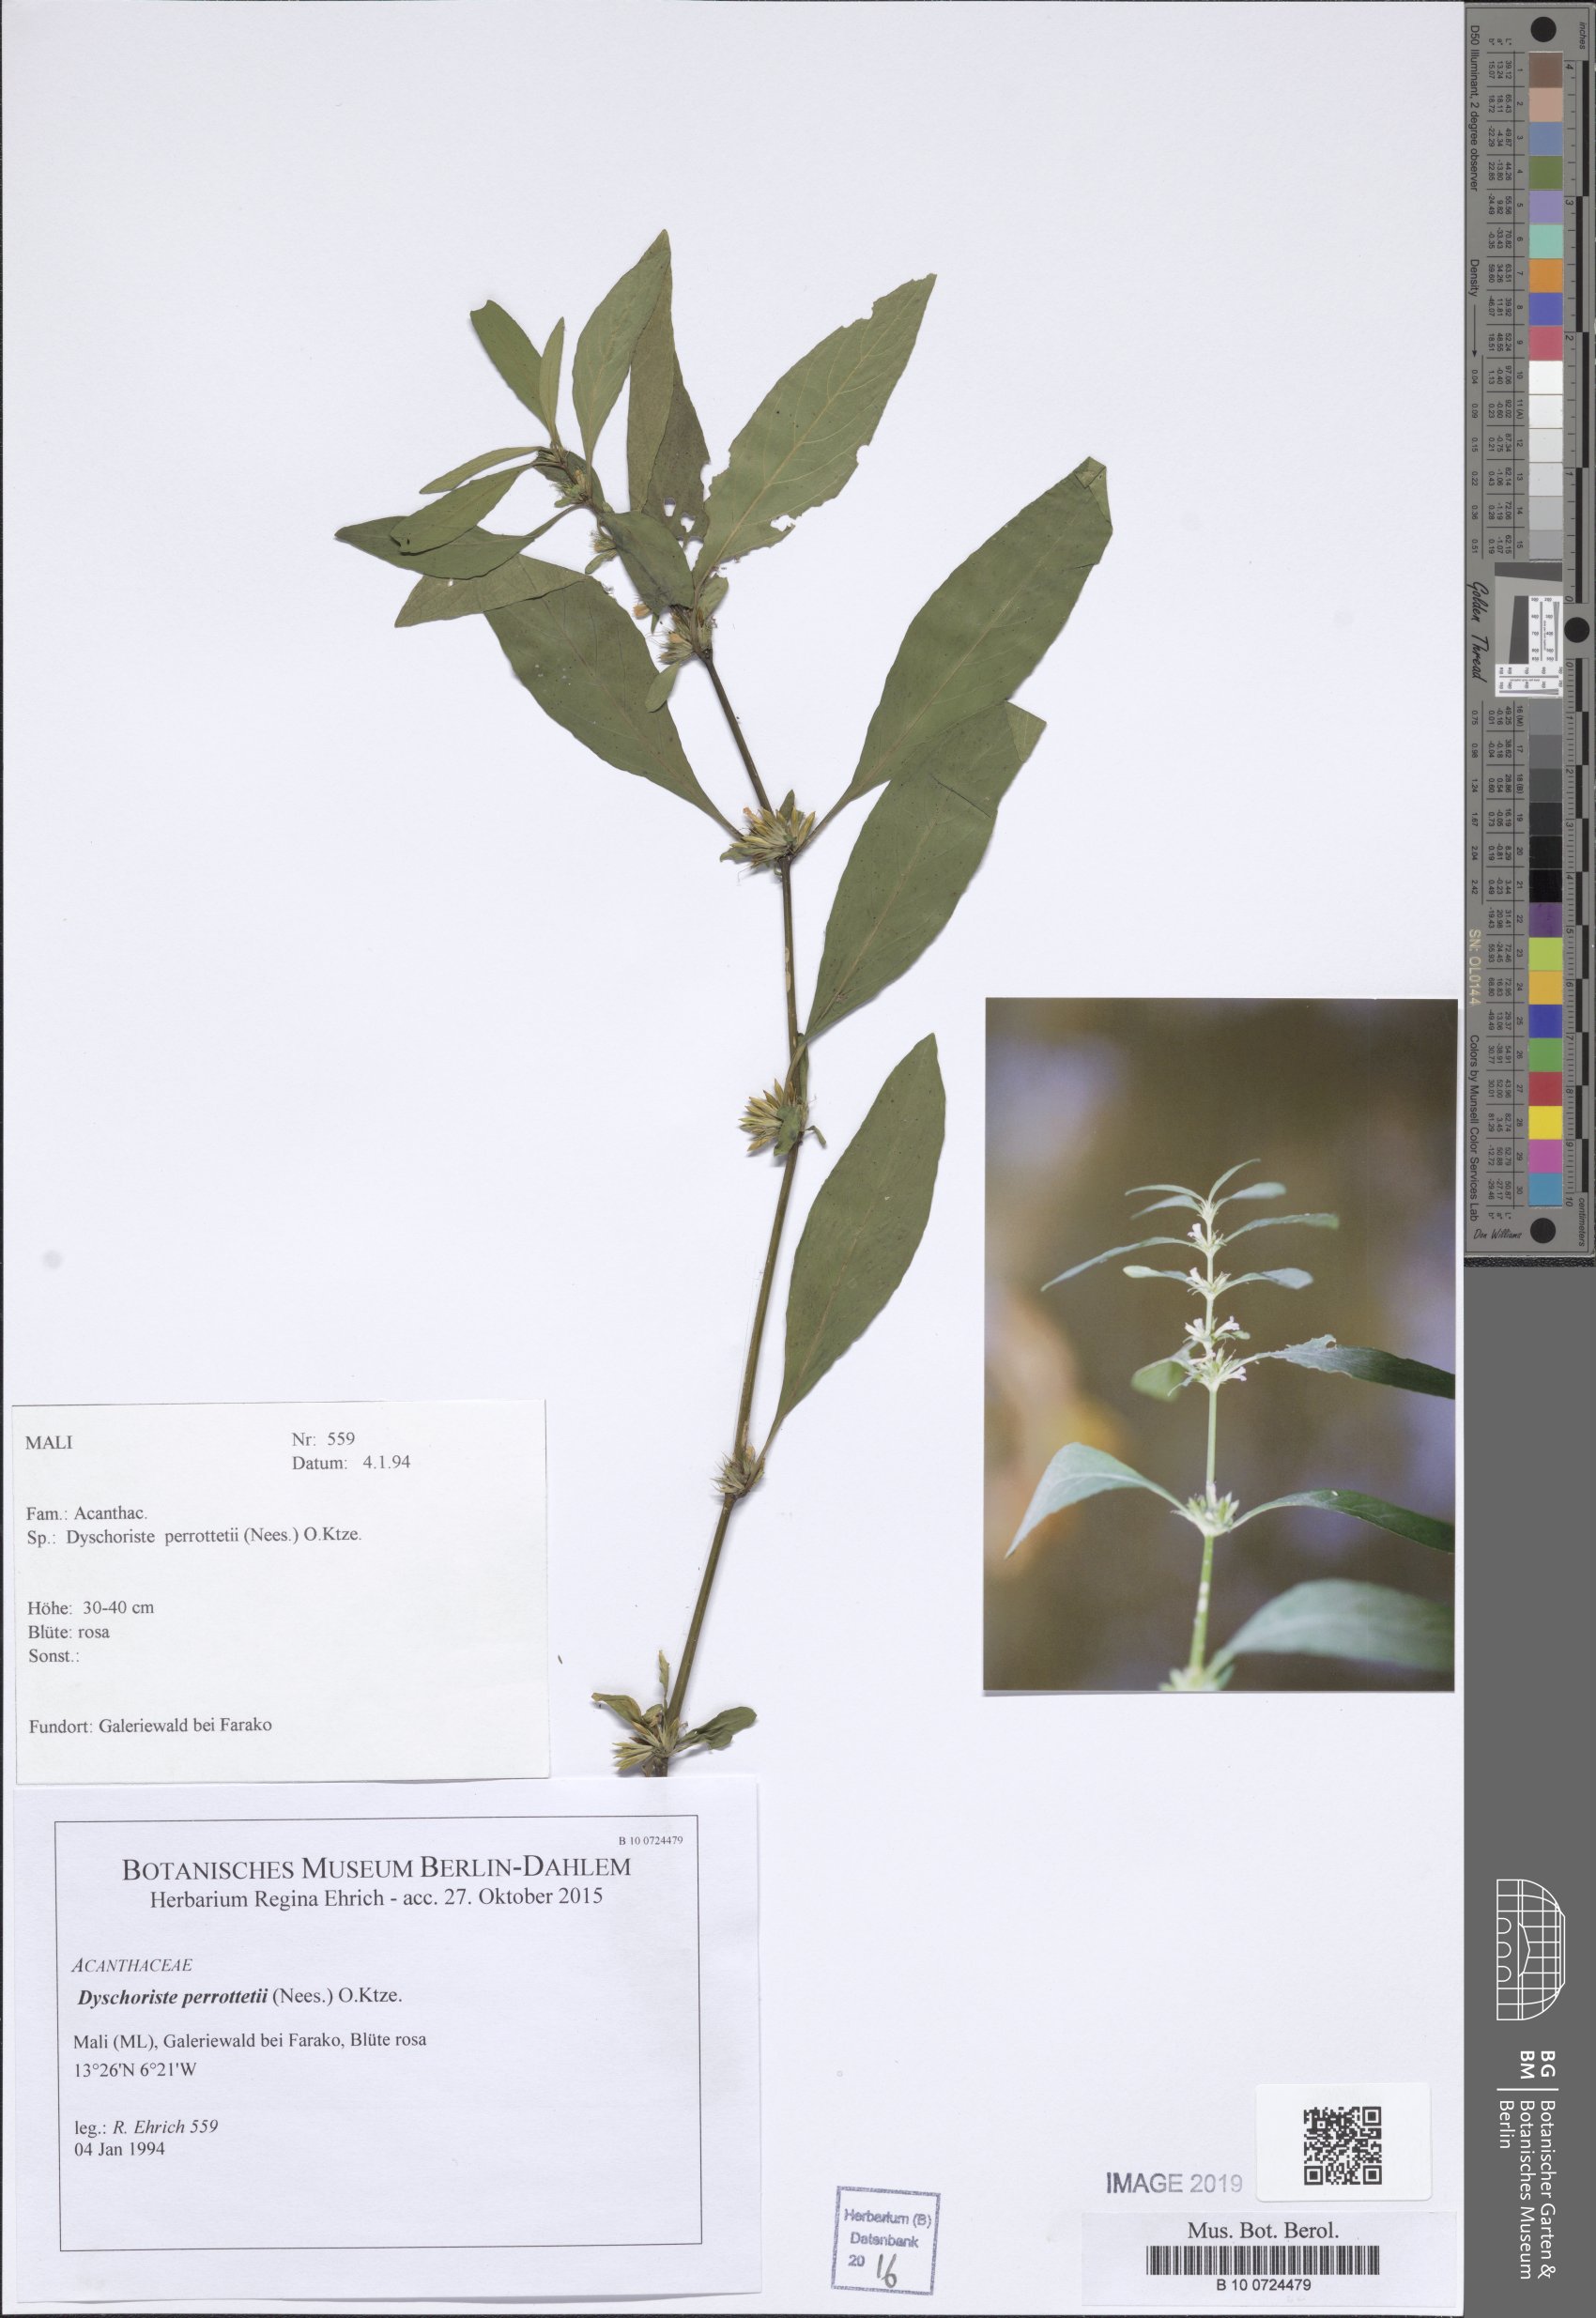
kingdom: Plantae
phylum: Tracheophyta
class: Magnoliopsida
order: Lamiales
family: Acanthaceae
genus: Dyschoriste
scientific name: Dyschoriste nagchana
